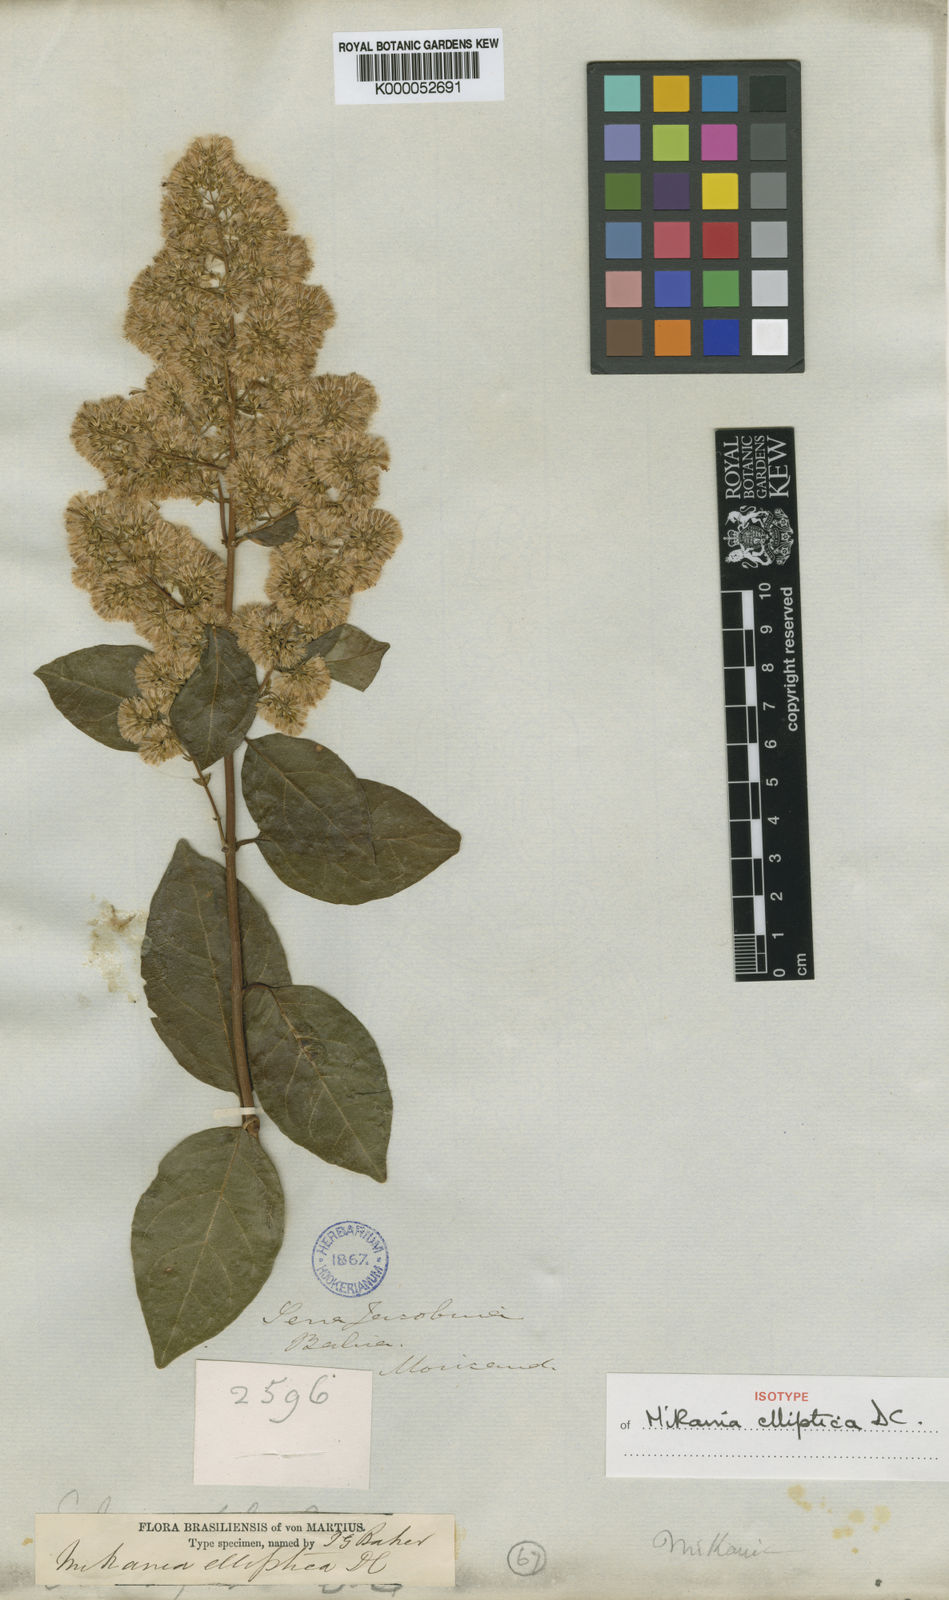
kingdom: Plantae
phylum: Tracheophyta
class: Magnoliopsida
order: Asterales
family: Asteraceae
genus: Mikania
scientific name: Mikania elliptica
